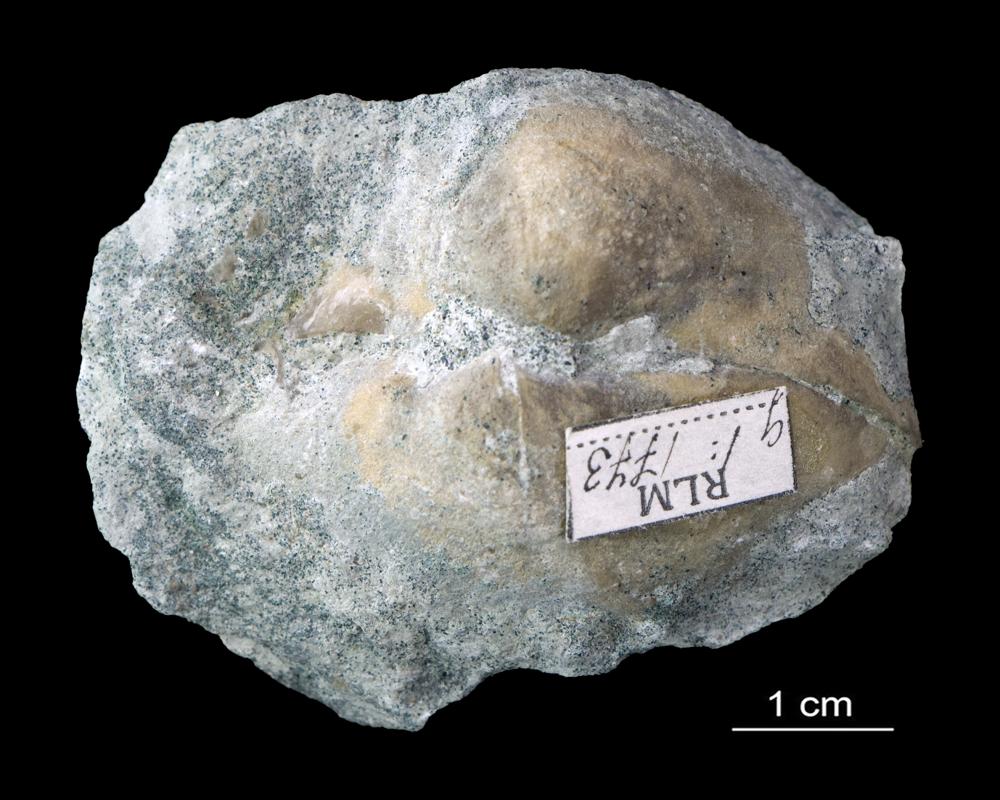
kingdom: Animalia
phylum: Brachiopoda
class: Rhynchonellata
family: Porambonitidae
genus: Porambonites
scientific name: Porambonites
